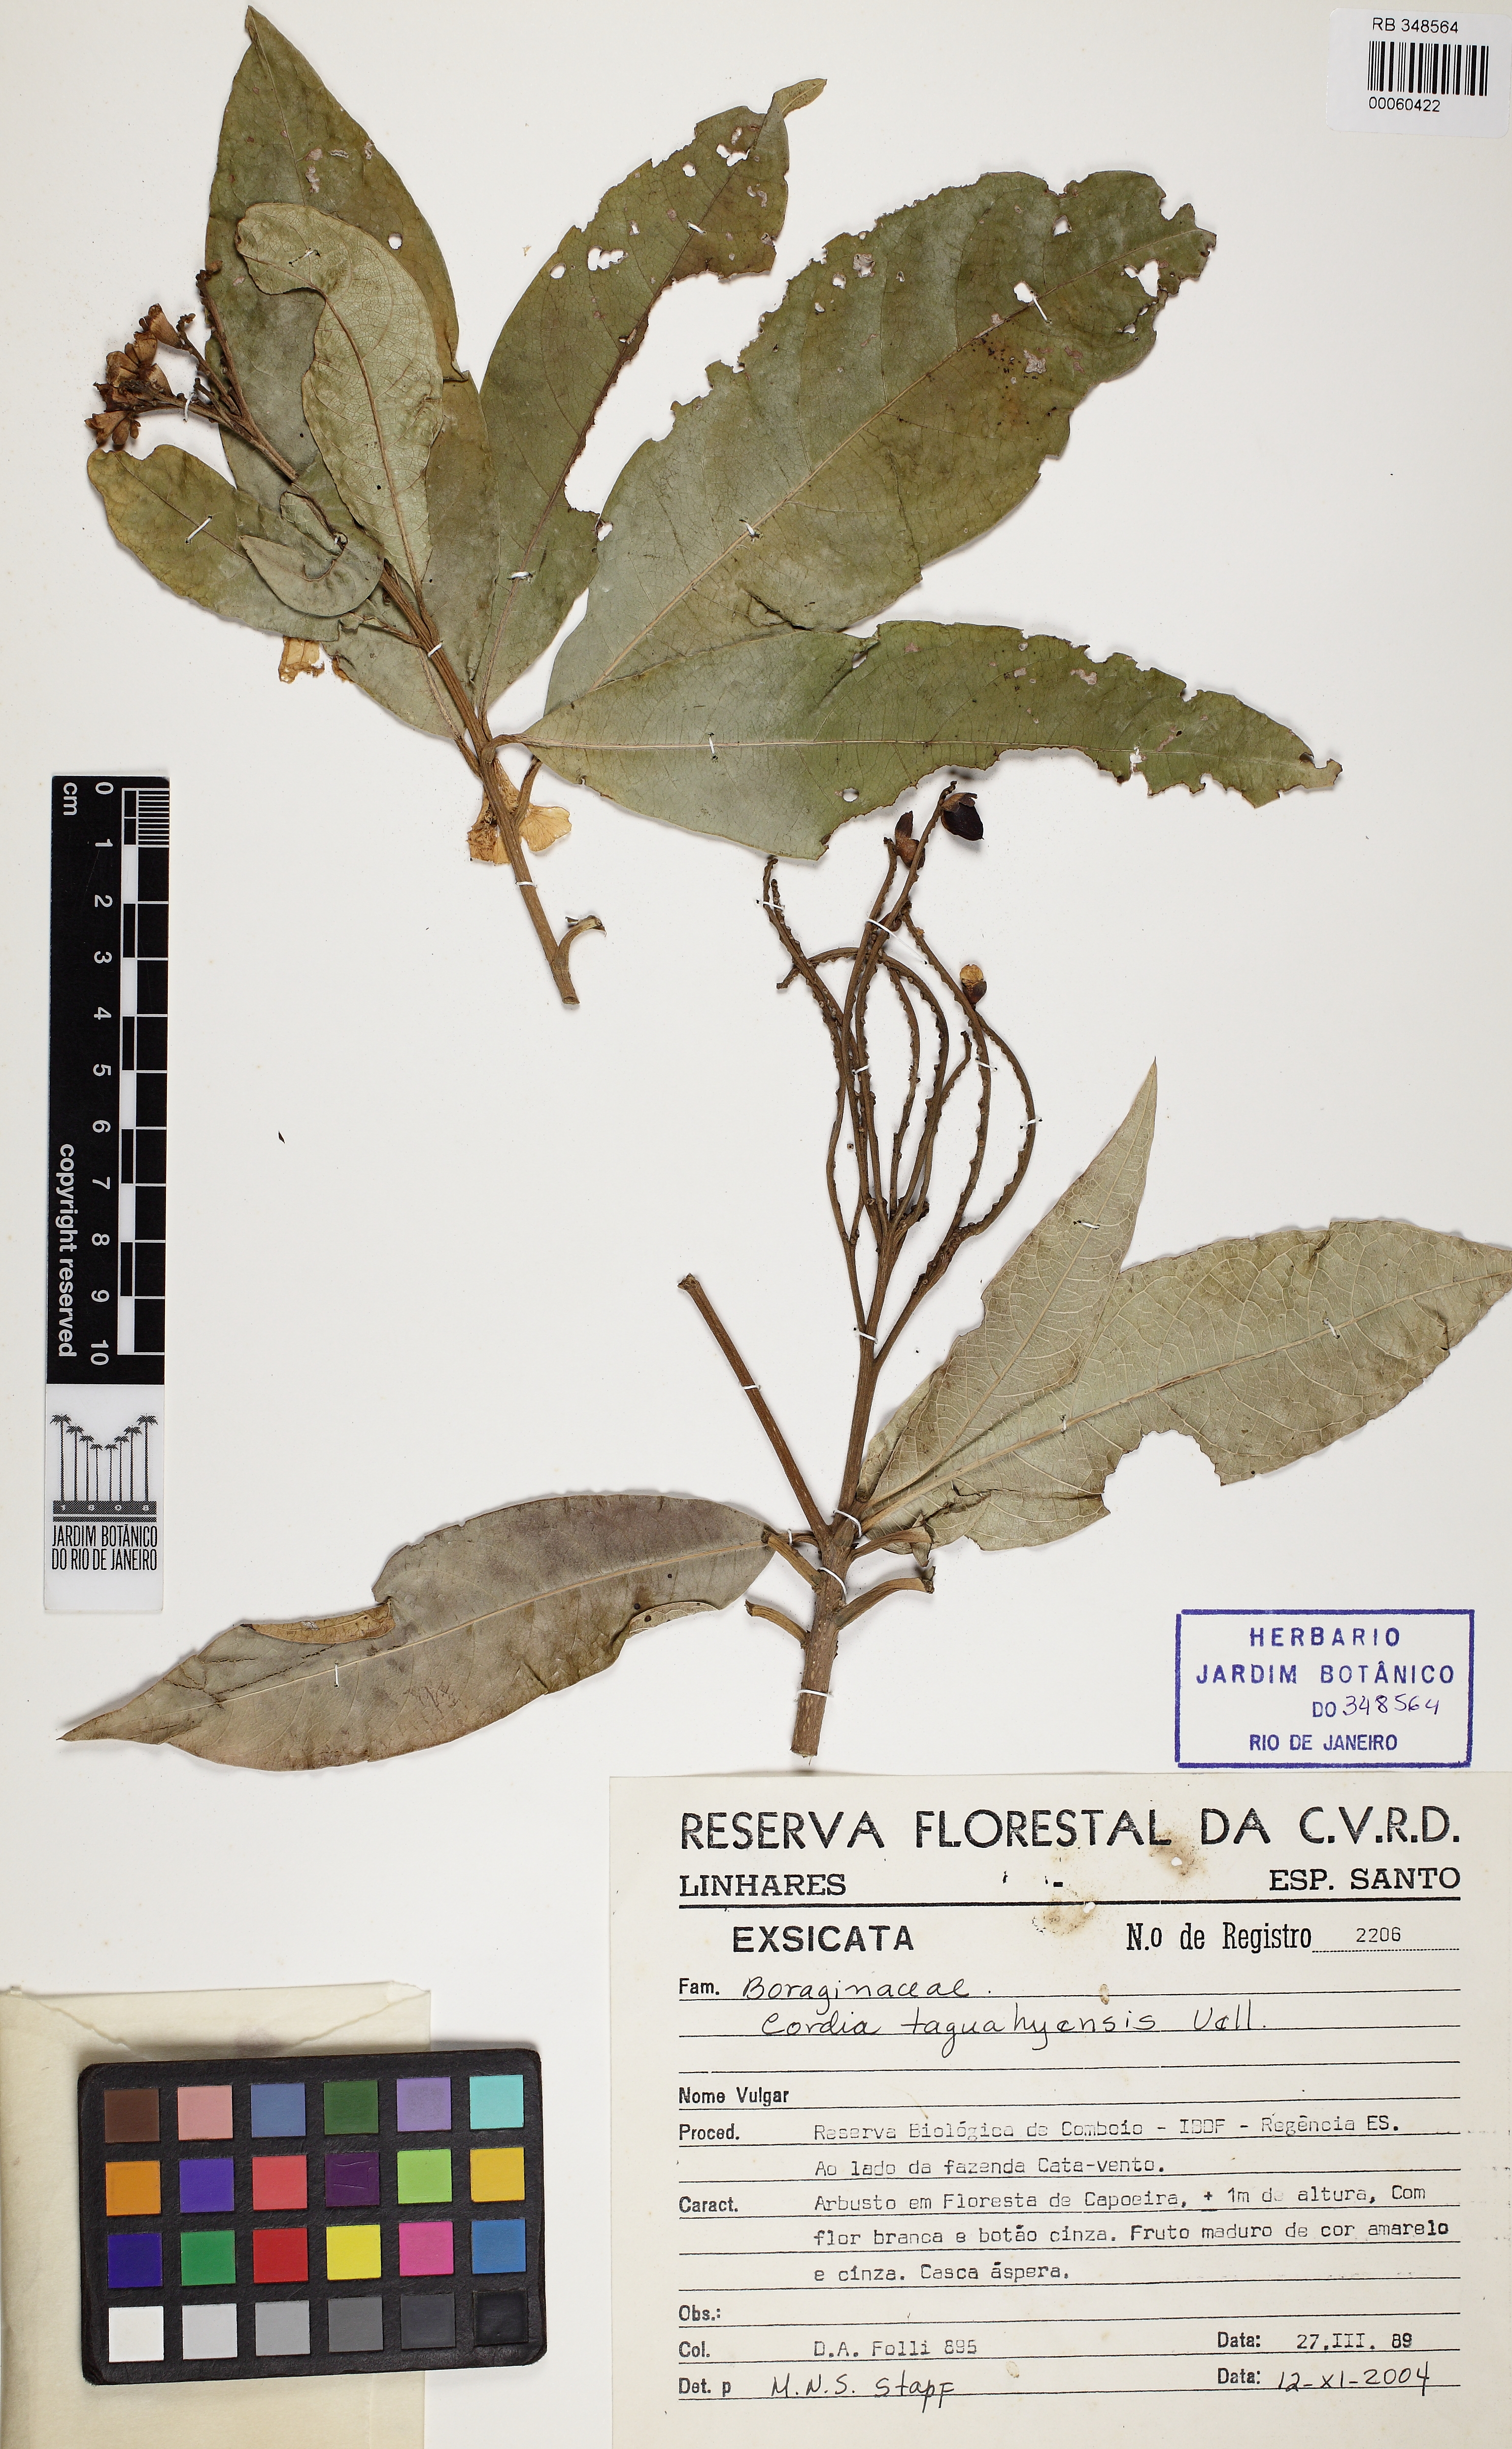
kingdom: Plantae
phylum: Tracheophyta
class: Magnoliopsida
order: Boraginales
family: Cordiaceae
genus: Cordia
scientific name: Cordia taguahuyensis
